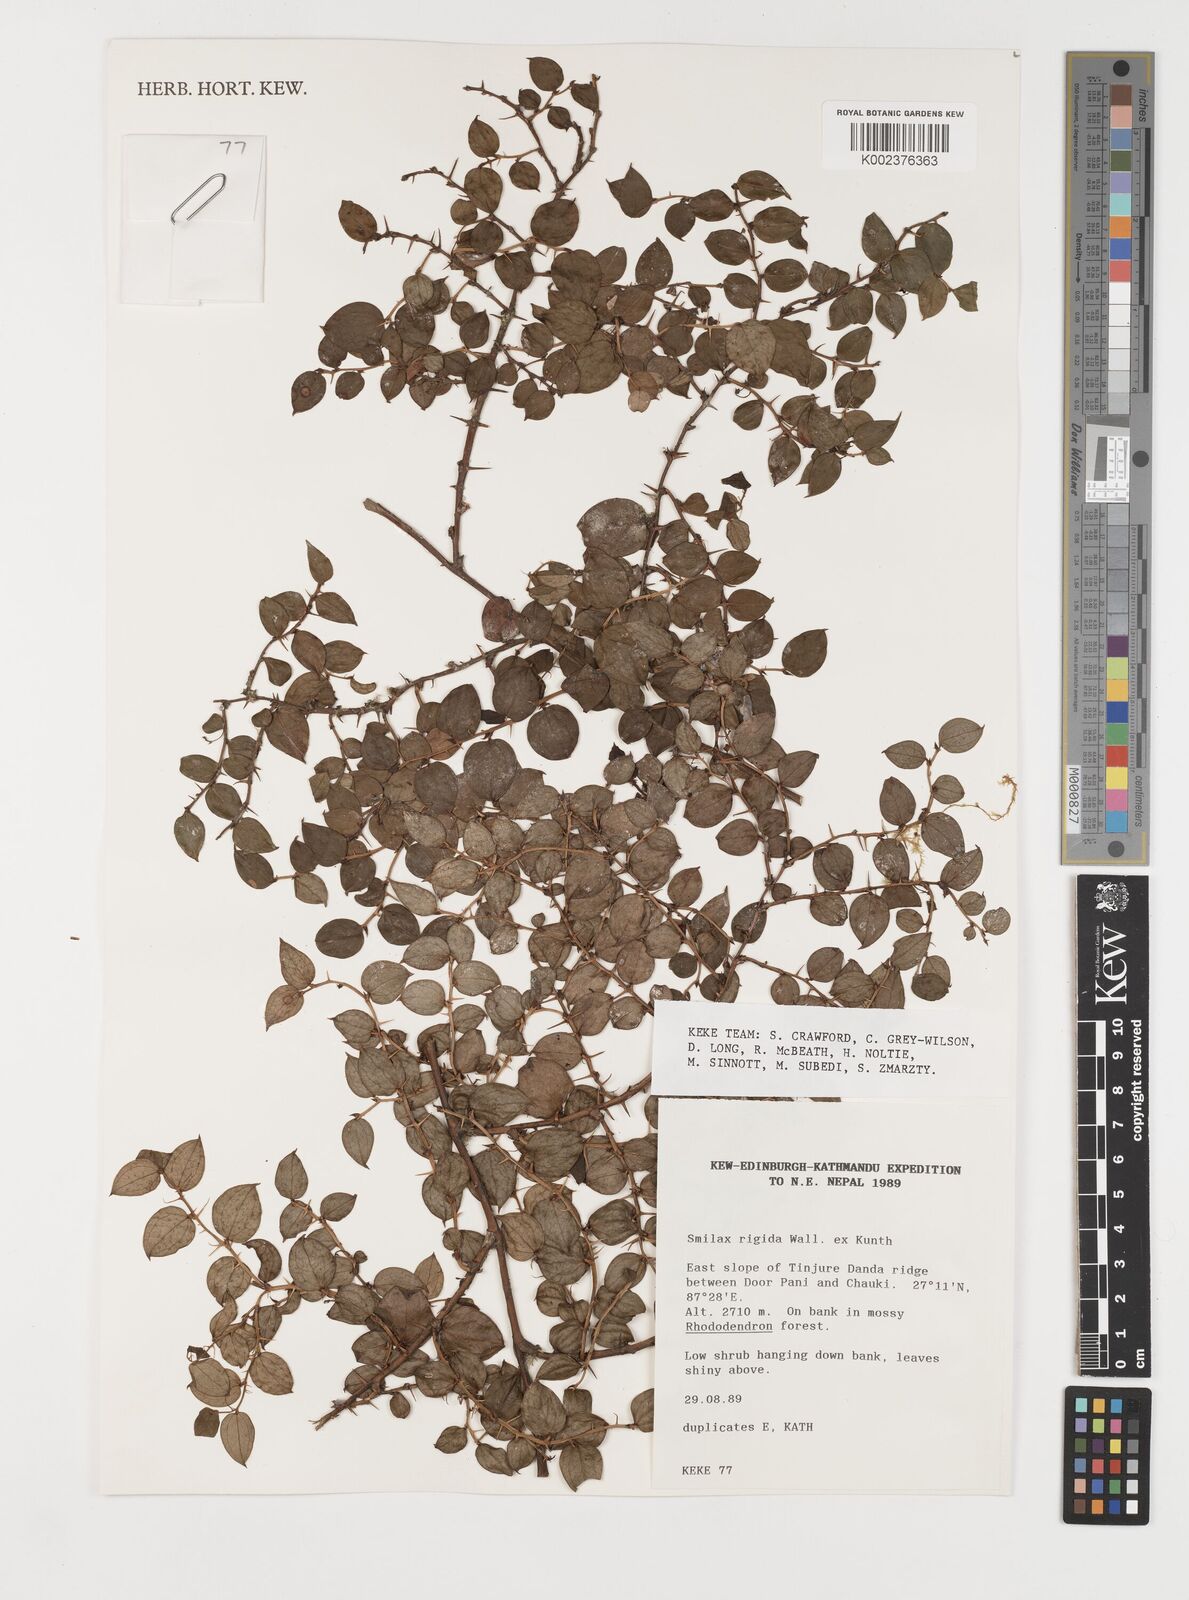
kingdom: Plantae
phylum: Tracheophyta
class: Liliopsida
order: Liliales
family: Smilacaceae
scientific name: Smilacaceae
